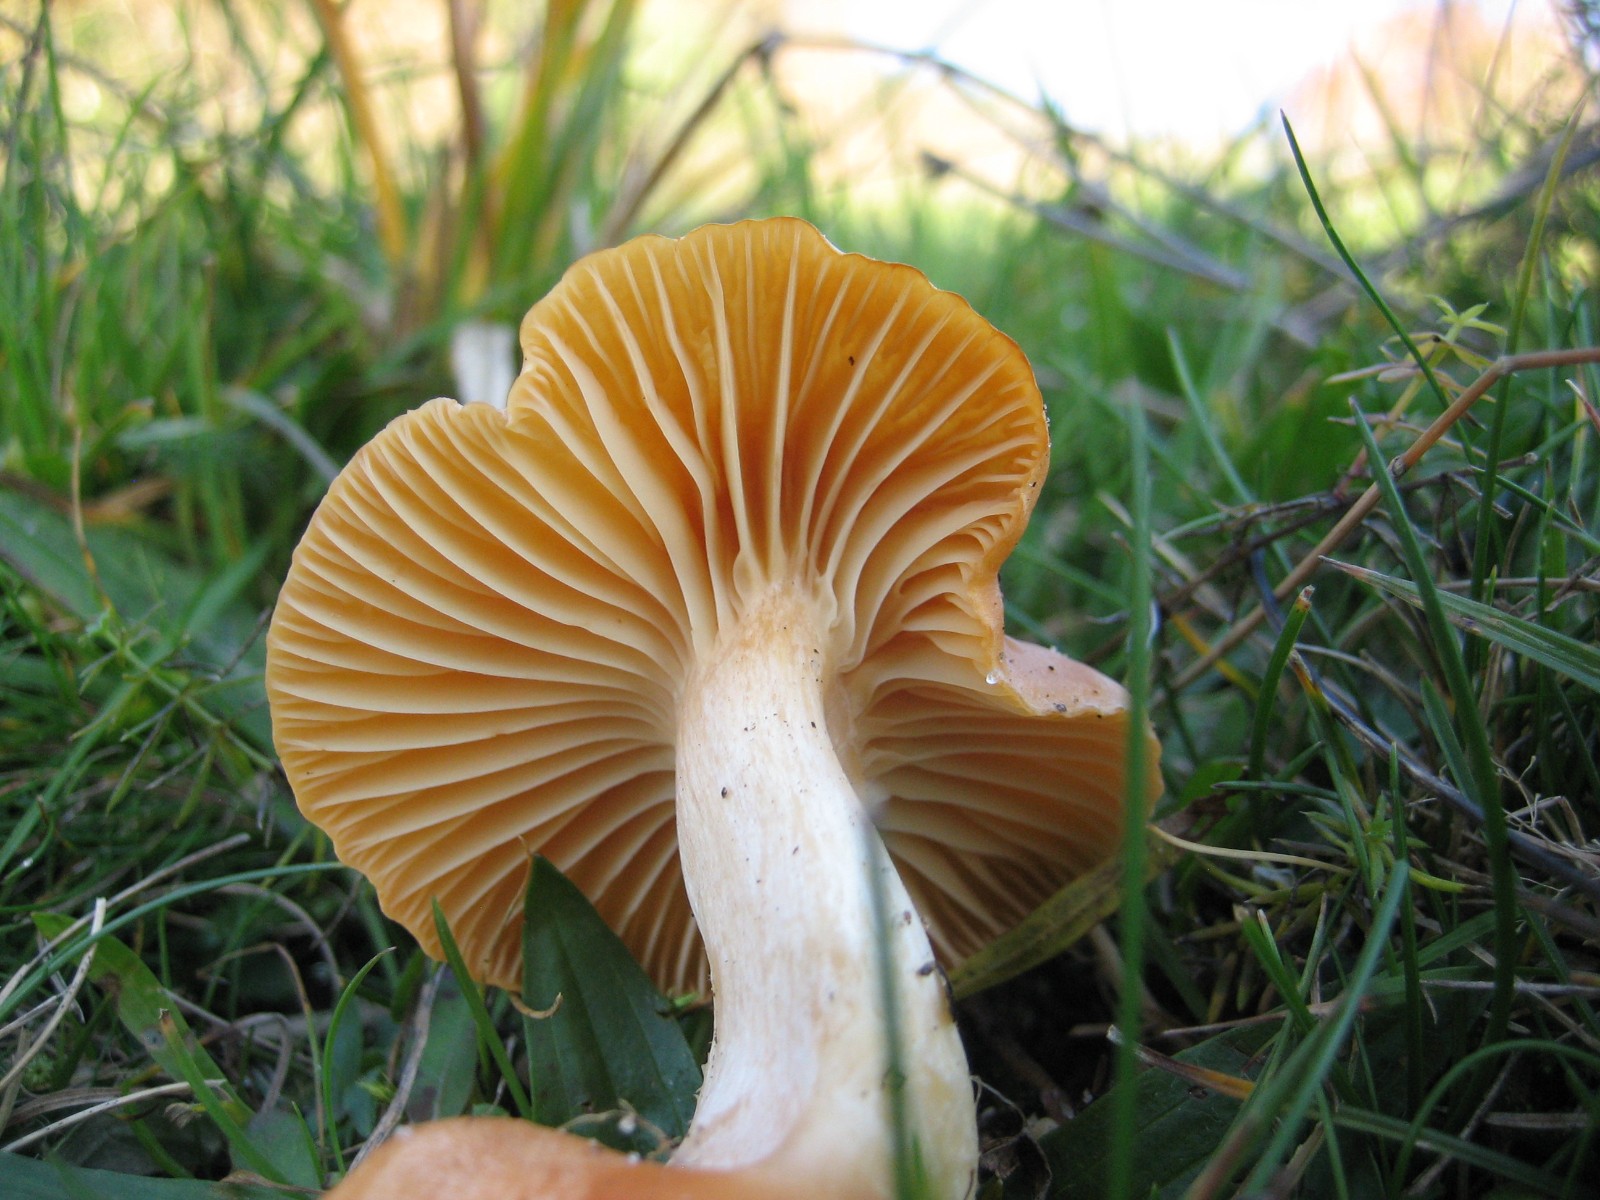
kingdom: Fungi
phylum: Basidiomycota
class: Agaricomycetes
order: Agaricales
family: Hygrophoraceae
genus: Cuphophyllus
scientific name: Cuphophyllus pratensis
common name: eng-vokshat
